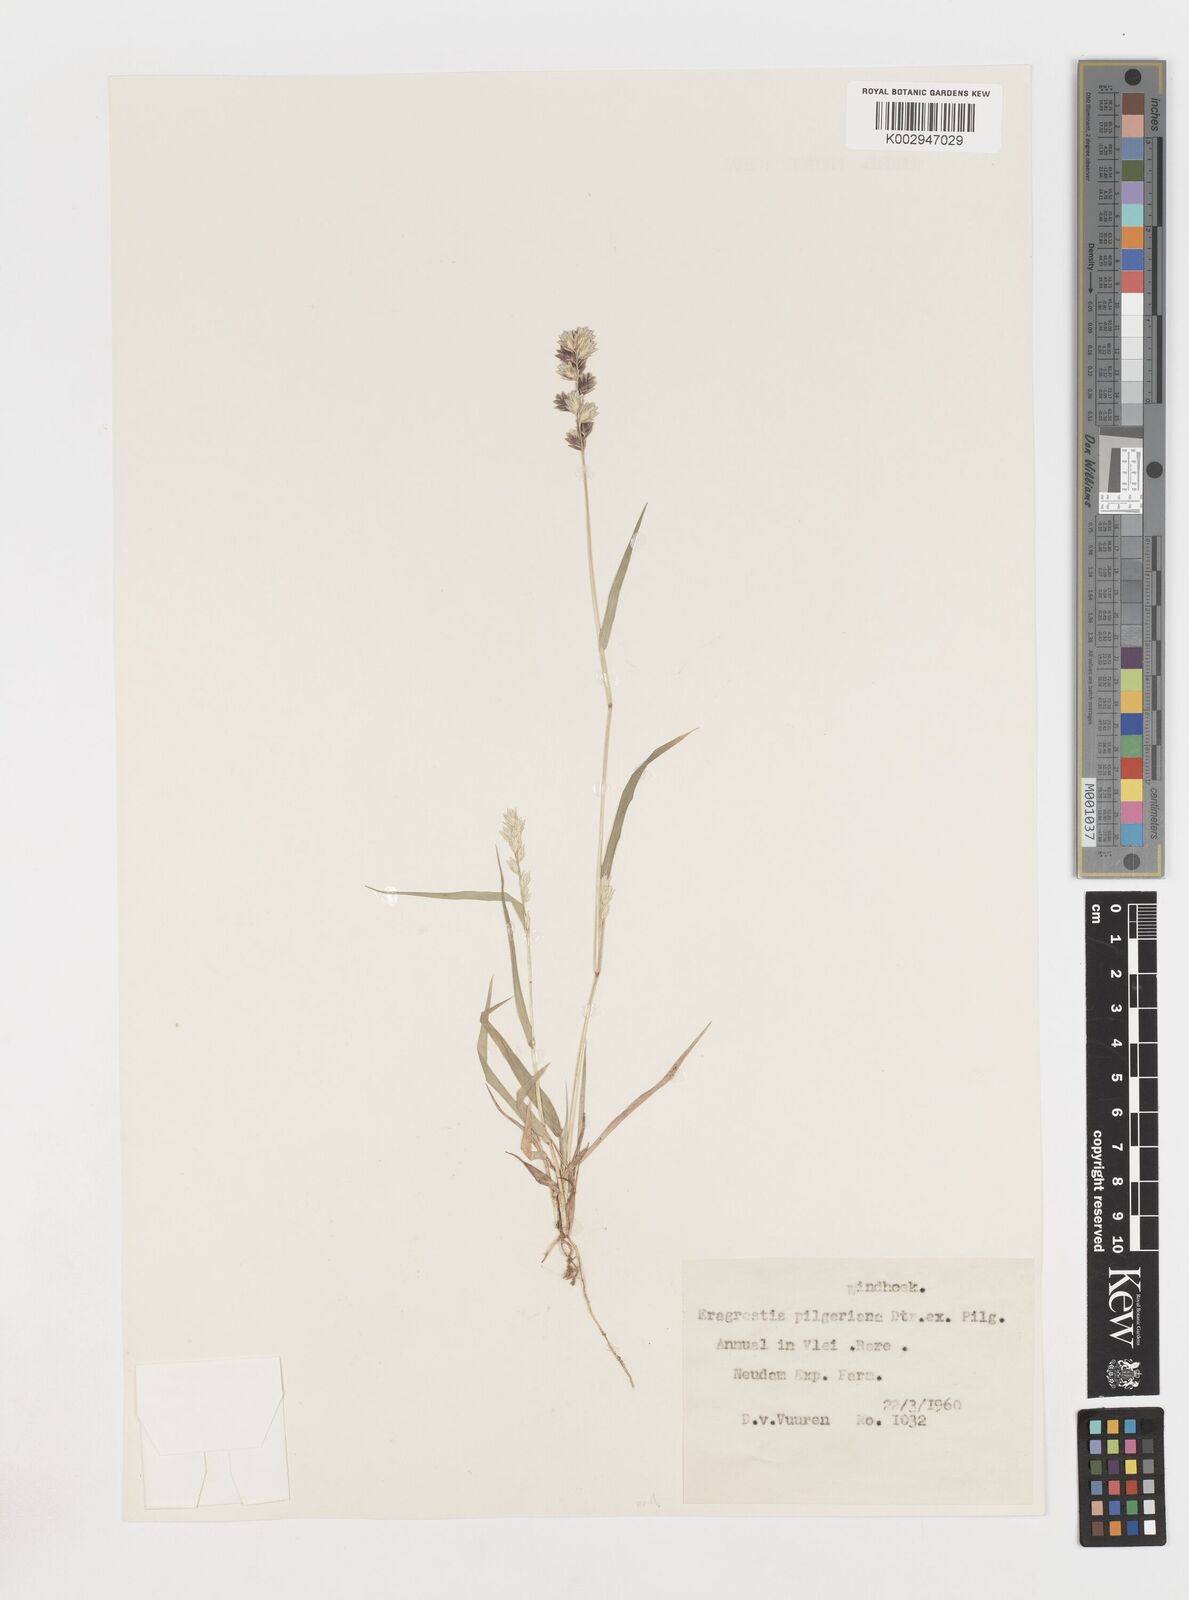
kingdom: Plantae
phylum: Tracheophyta
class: Liliopsida
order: Poales
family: Poaceae
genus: Eragrostis
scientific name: Eragrostis pilgeriana
